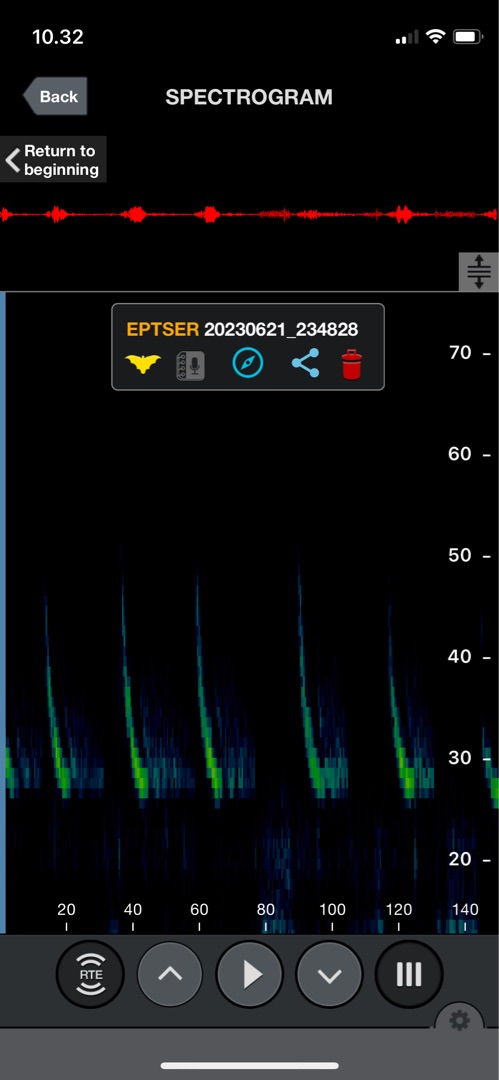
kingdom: Animalia
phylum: Chordata
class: Mammalia
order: Chiroptera
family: Vespertilionidae
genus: Eptesicus
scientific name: Eptesicus serotinus
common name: Sydflagermus
